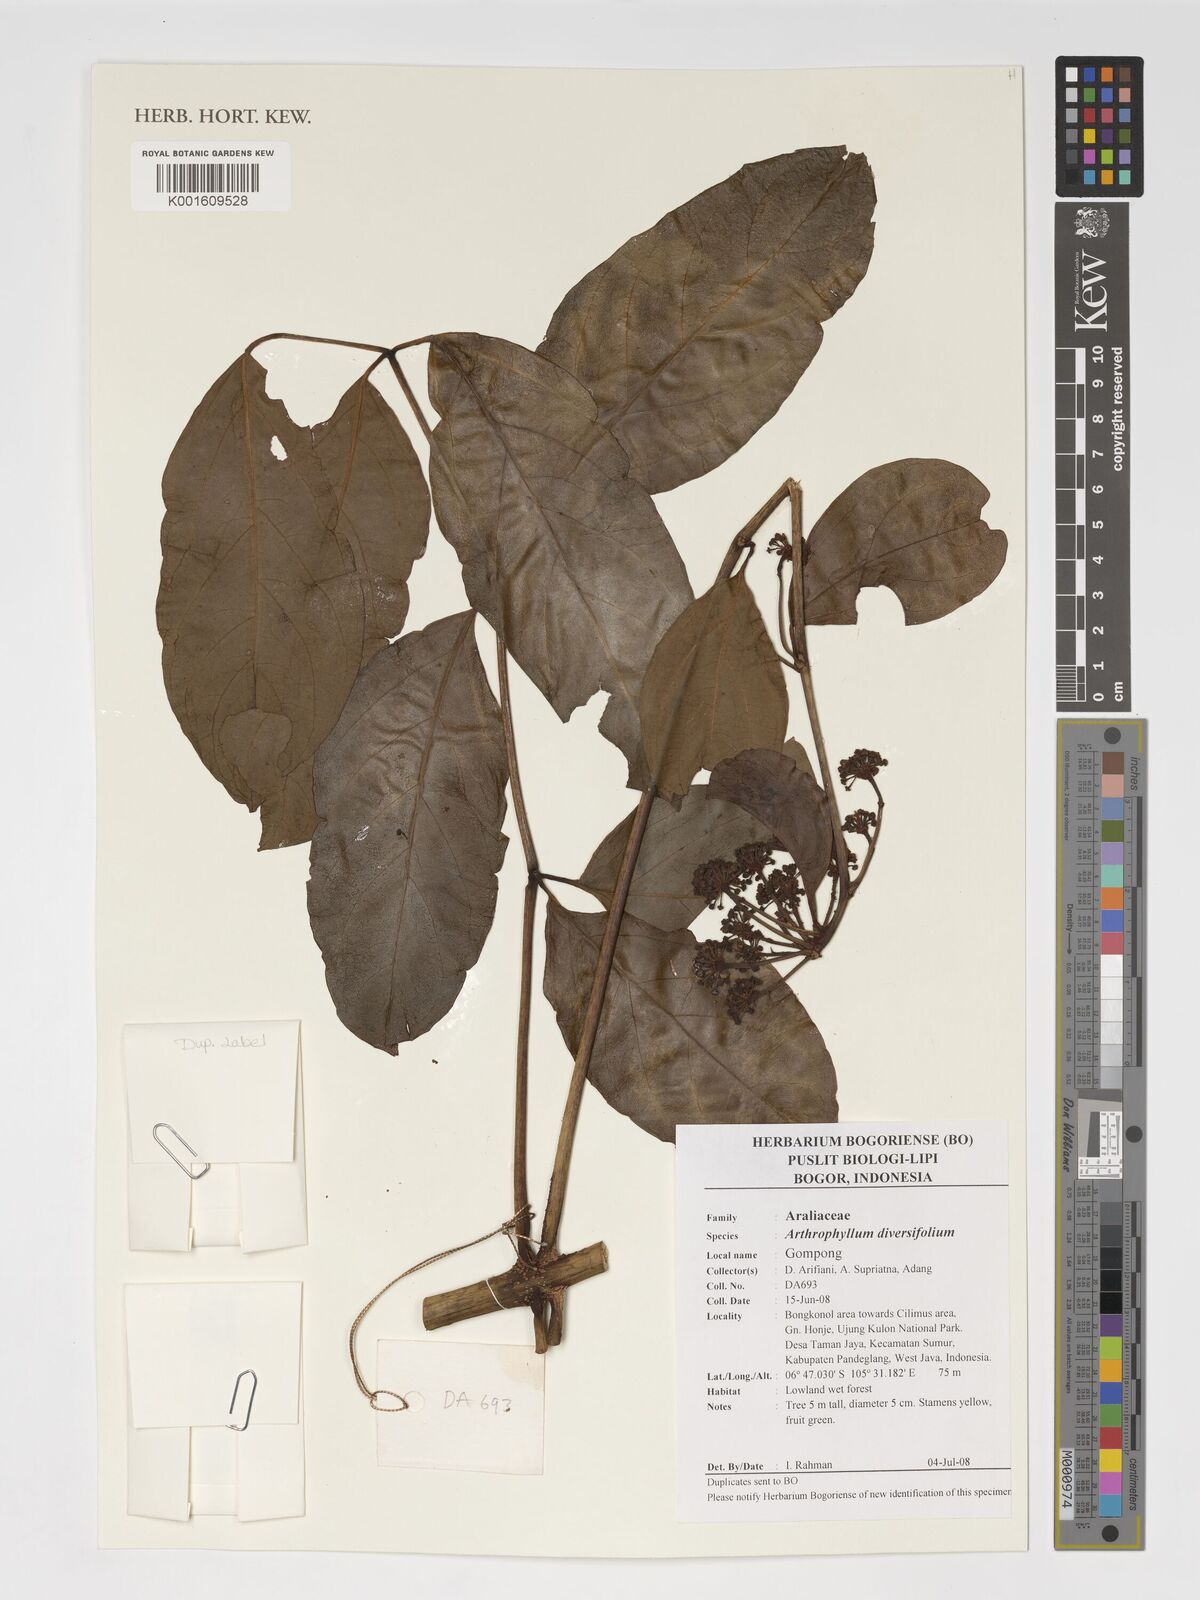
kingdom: Plantae
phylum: Tracheophyta
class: Magnoliopsida
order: Apiales
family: Araliaceae
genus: Polyscias
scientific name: Polyscias biformis
